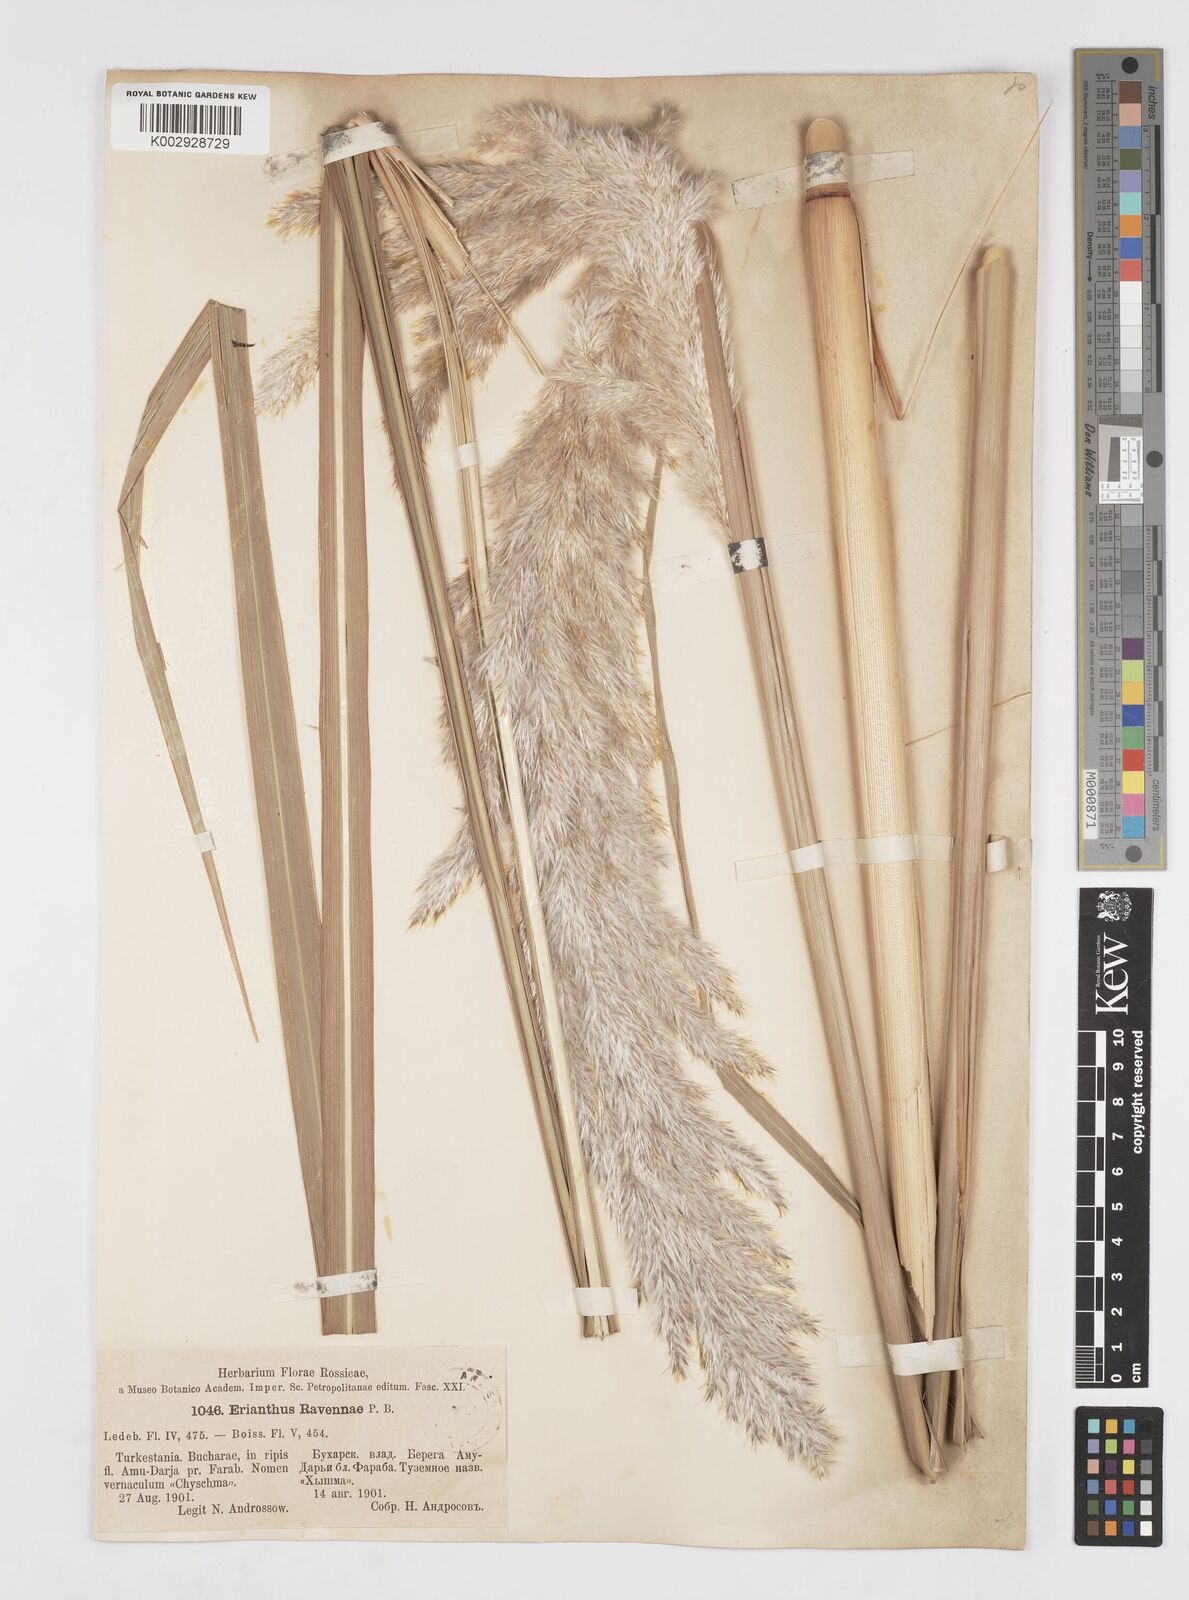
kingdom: Plantae
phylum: Tracheophyta
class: Liliopsida
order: Poales
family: Poaceae
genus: Tripidium
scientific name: Tripidium ravennae
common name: Ravenna grass
